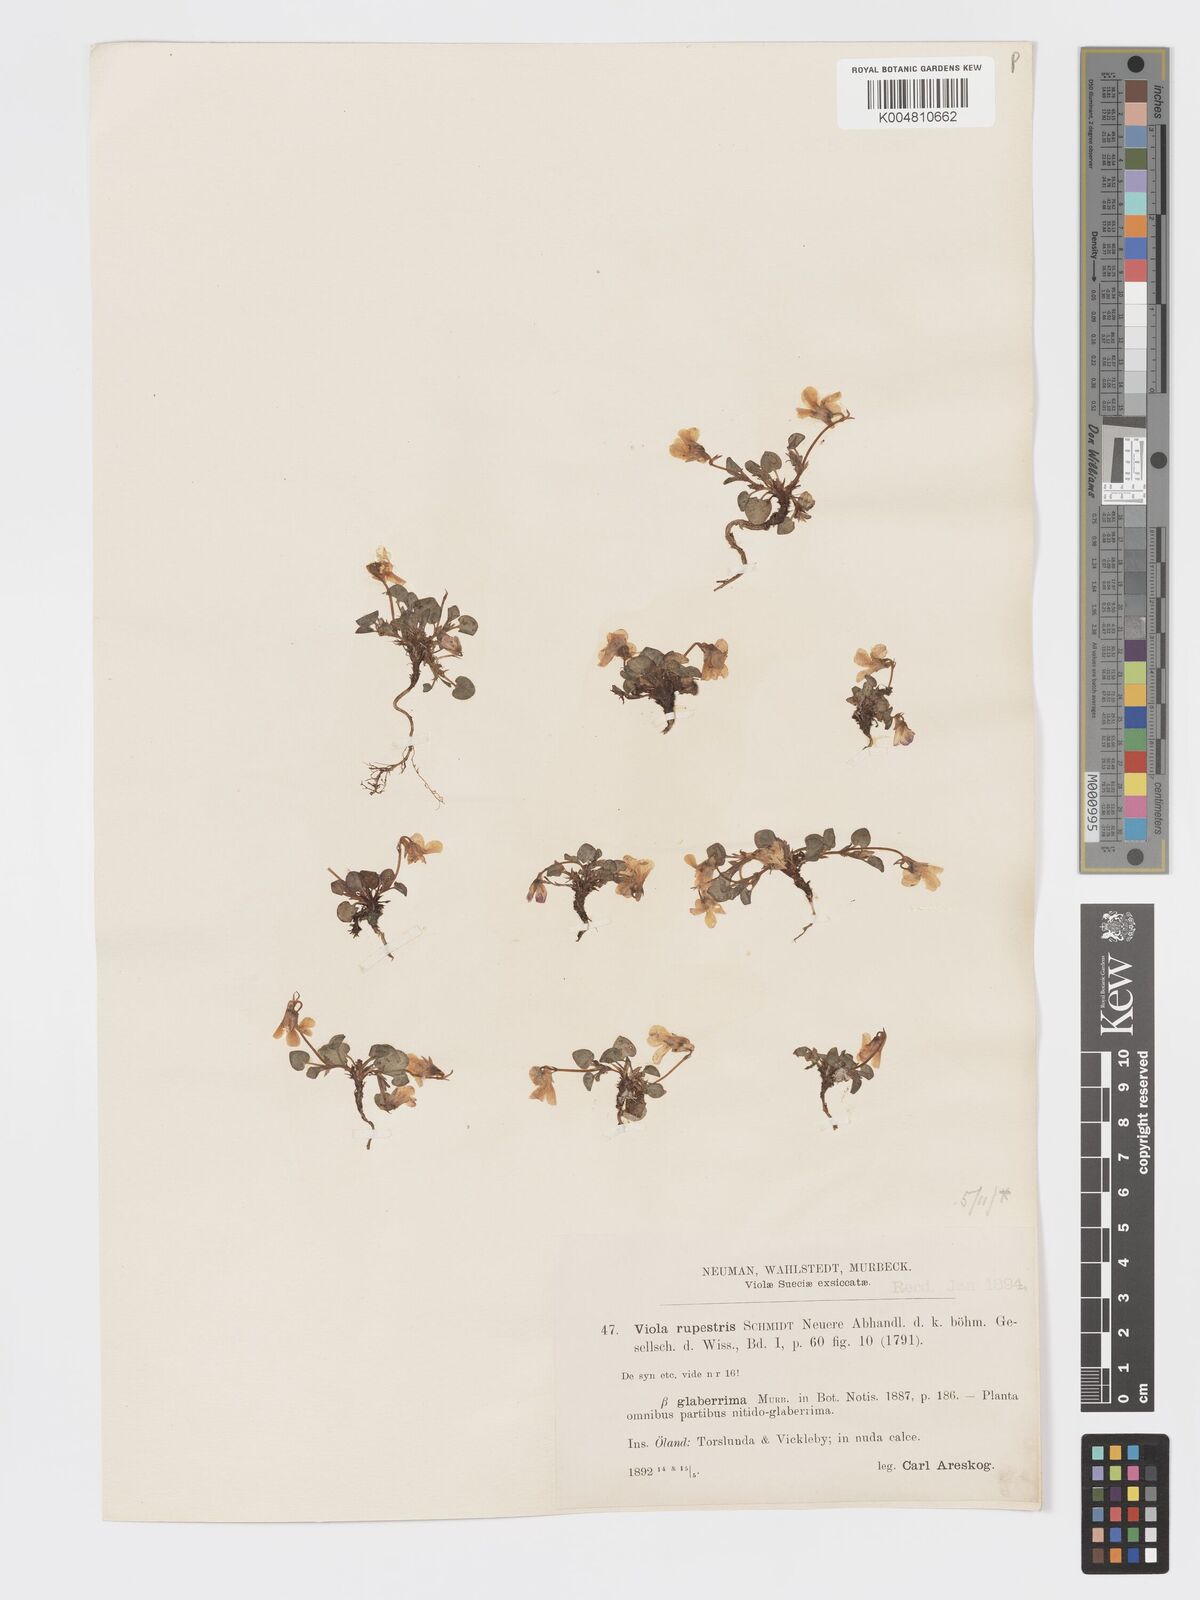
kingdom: Plantae
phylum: Tracheophyta
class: Magnoliopsida
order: Malpighiales
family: Violaceae
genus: Viola
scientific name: Viola rupestris
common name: Teesdale violet
